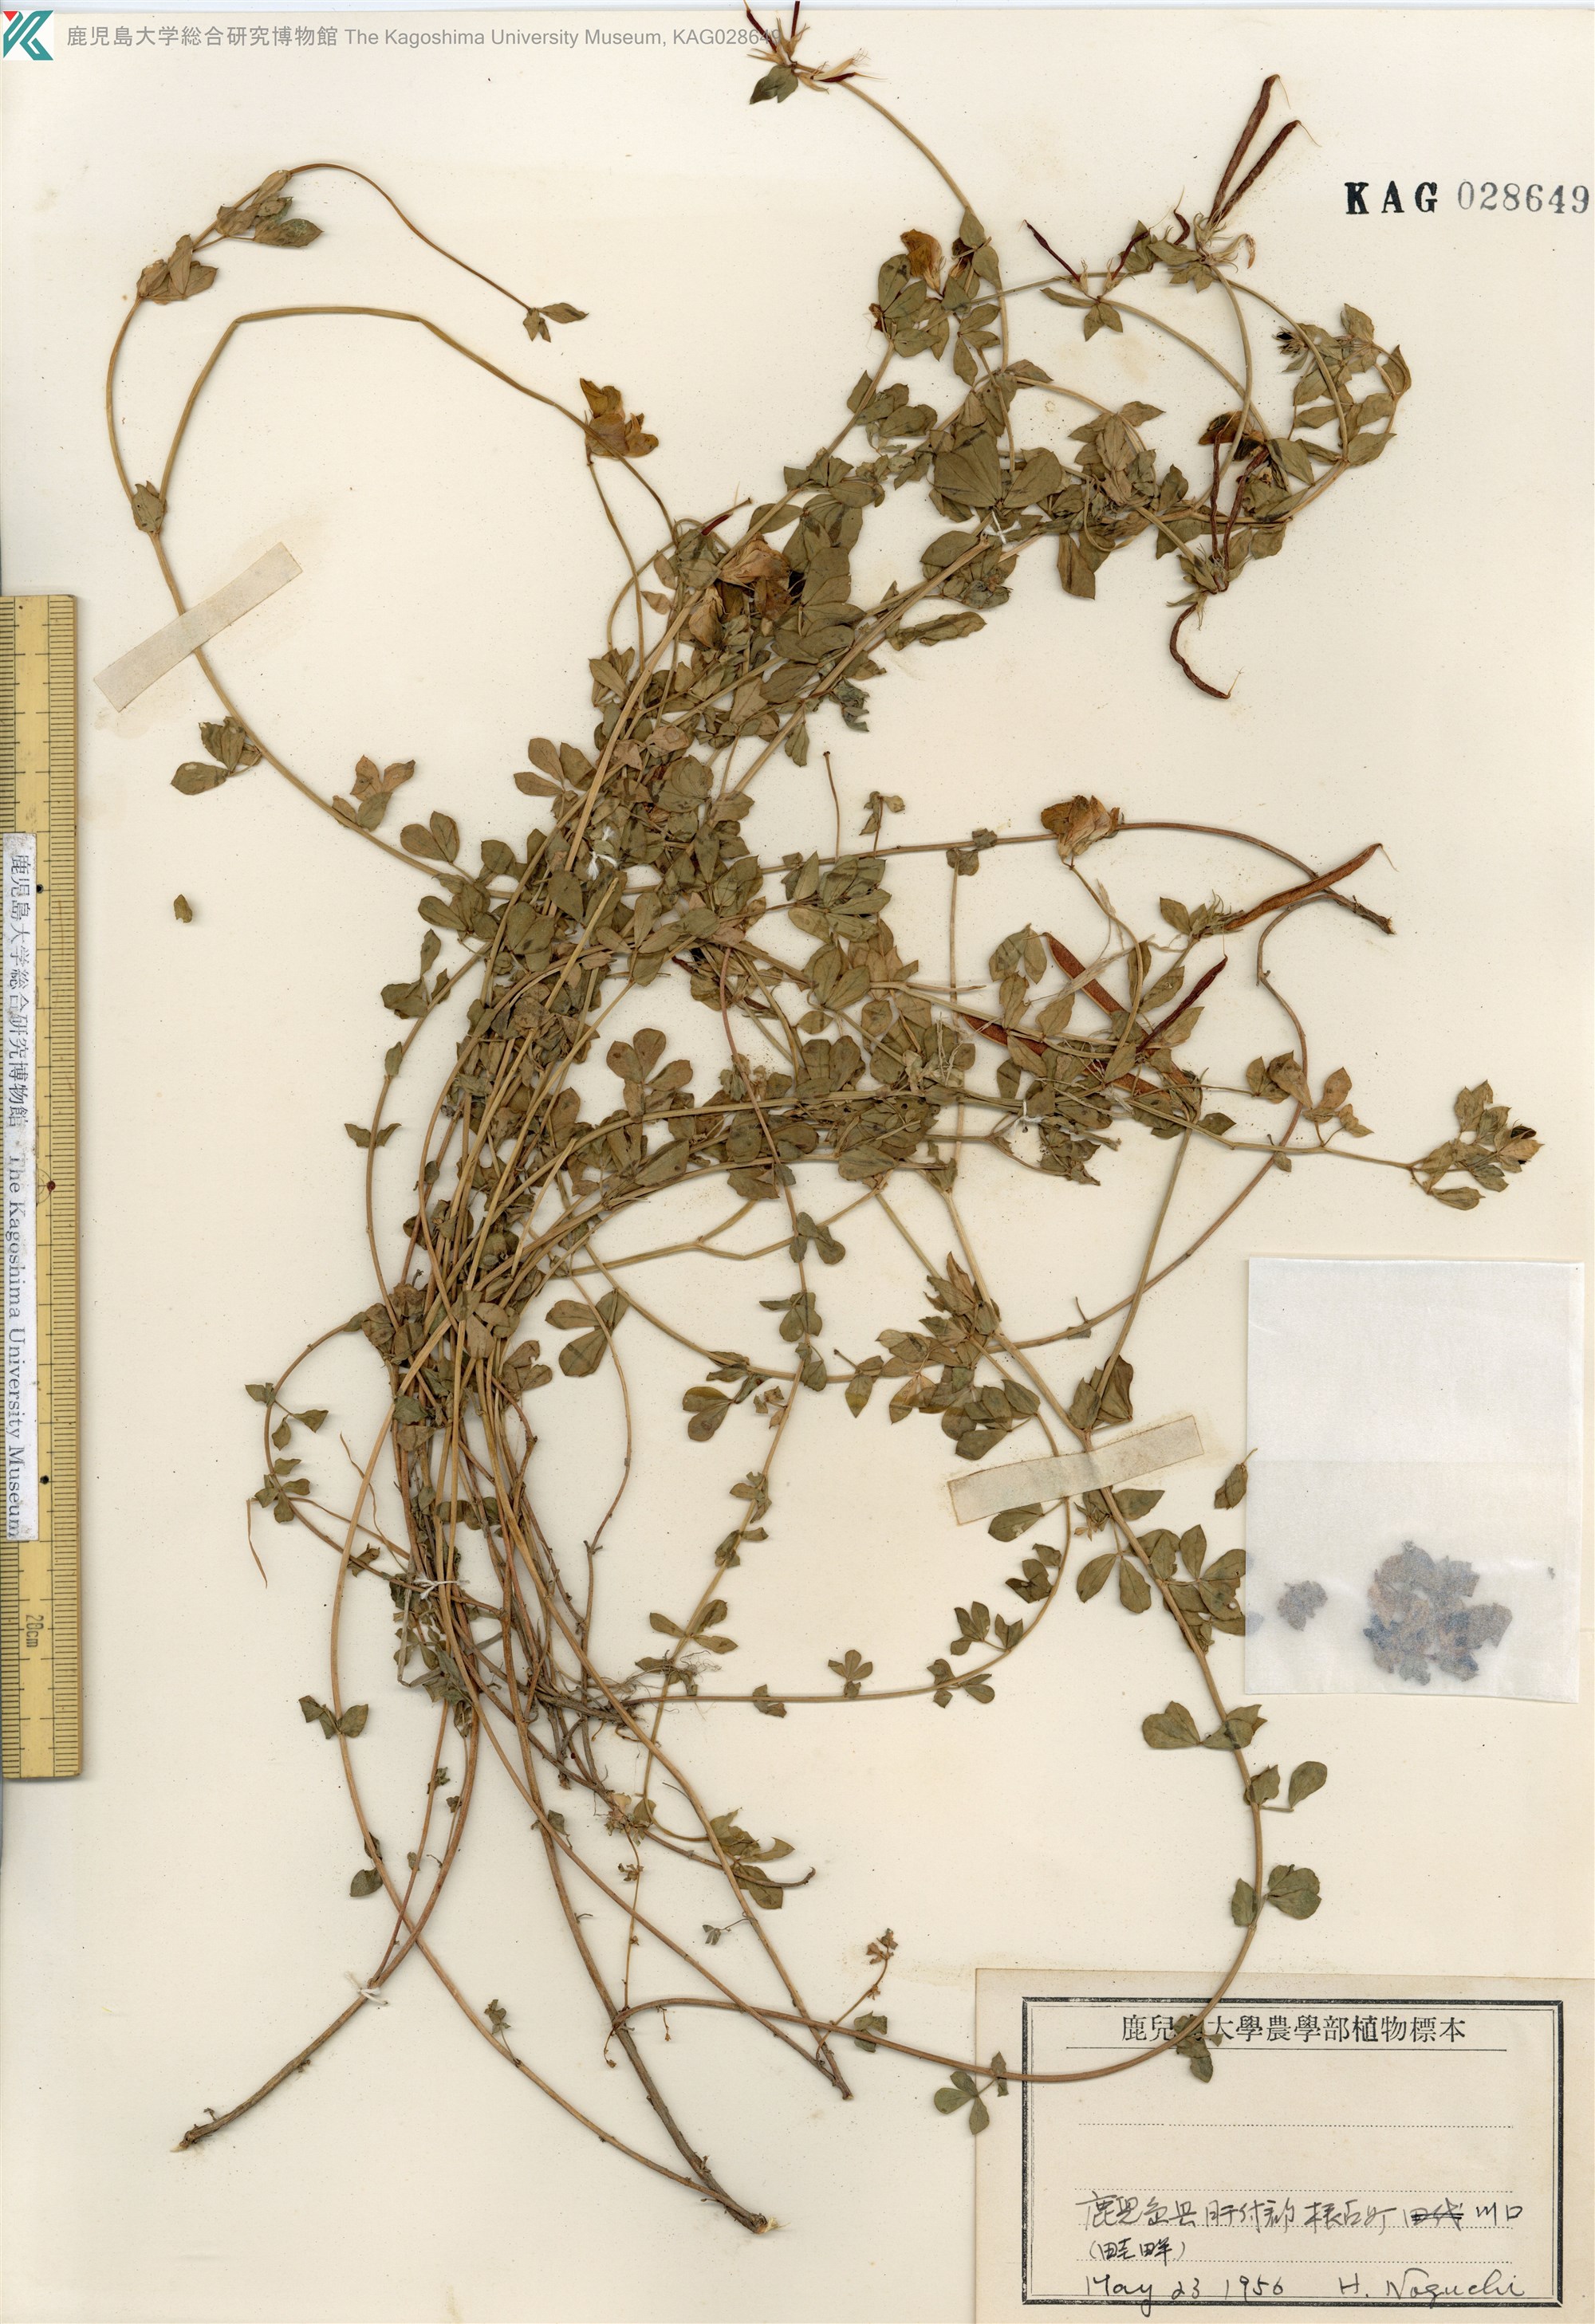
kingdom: Plantae
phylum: Tracheophyta
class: Magnoliopsida
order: Fabales
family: Fabaceae
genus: Lotus
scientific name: Lotus japonicus
